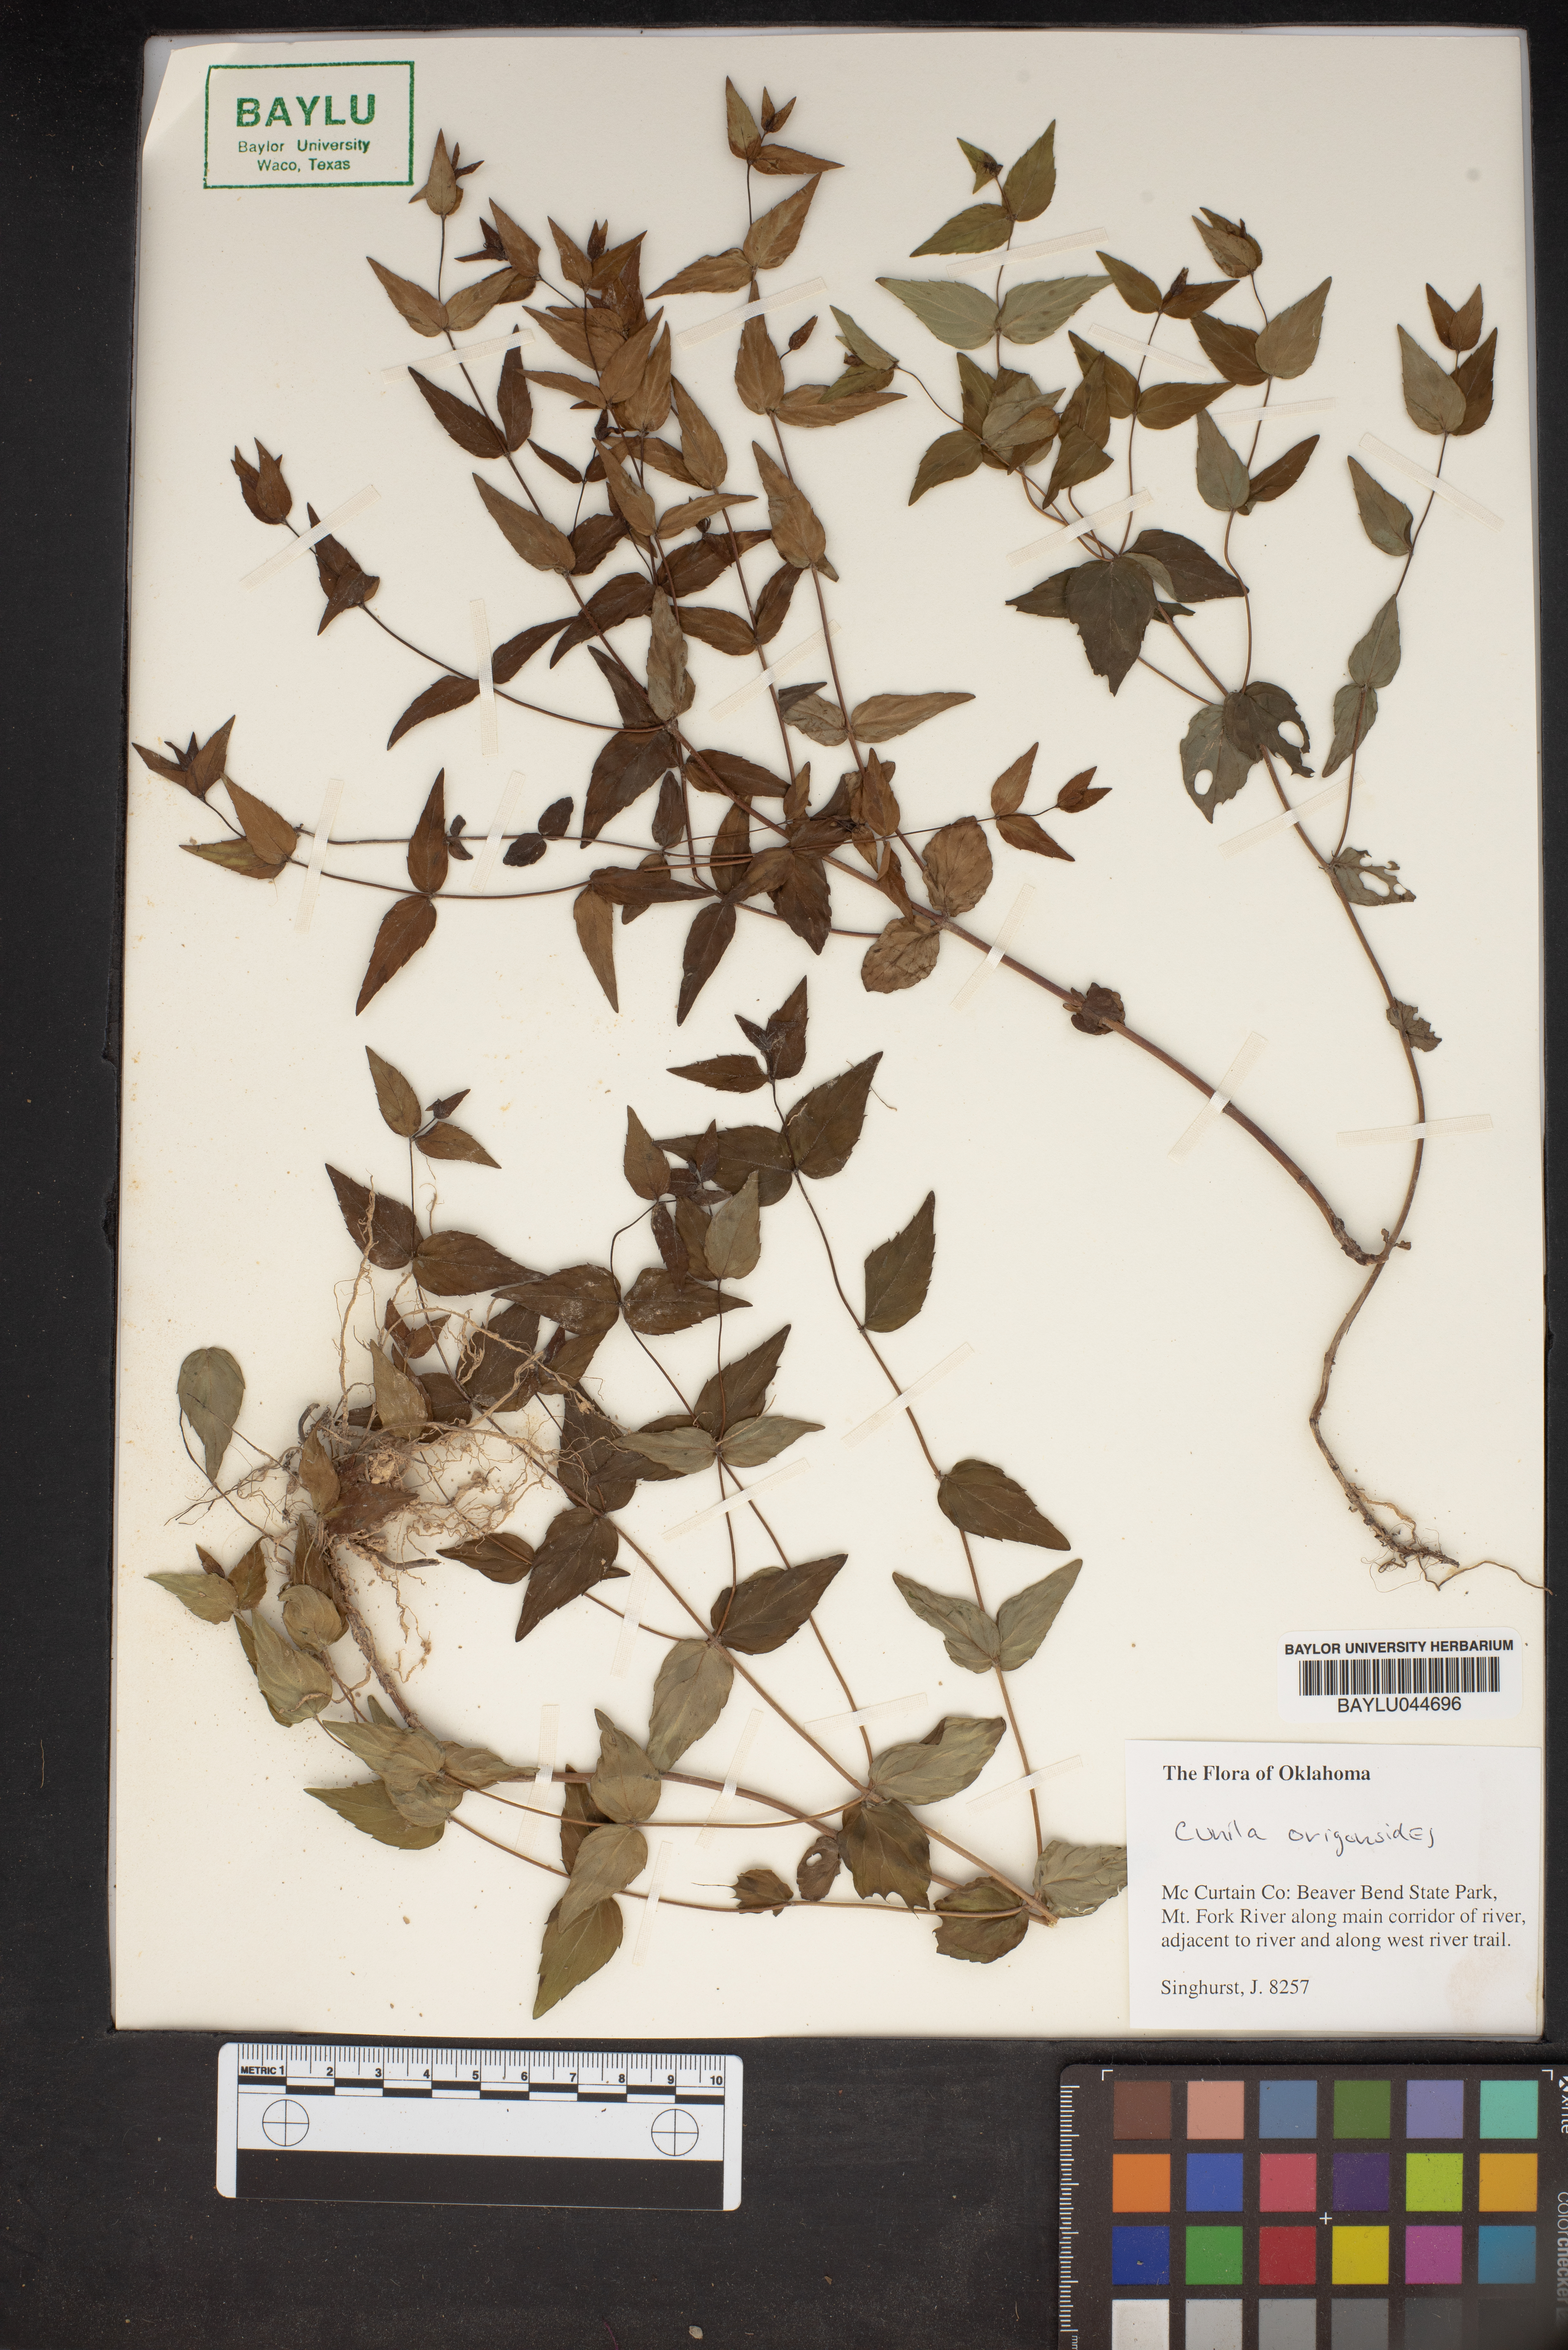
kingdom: Plantae
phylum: Tracheophyta
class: Magnoliopsida
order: Lamiales
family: Lamiaceae
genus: Cunila
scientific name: Cunila origanoides
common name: American dittany
